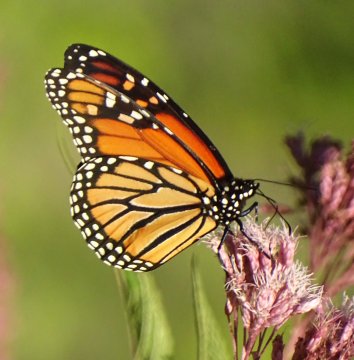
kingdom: Animalia
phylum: Arthropoda
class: Insecta
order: Lepidoptera
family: Nymphalidae
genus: Danaus
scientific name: Danaus plexippus
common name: Monarch
